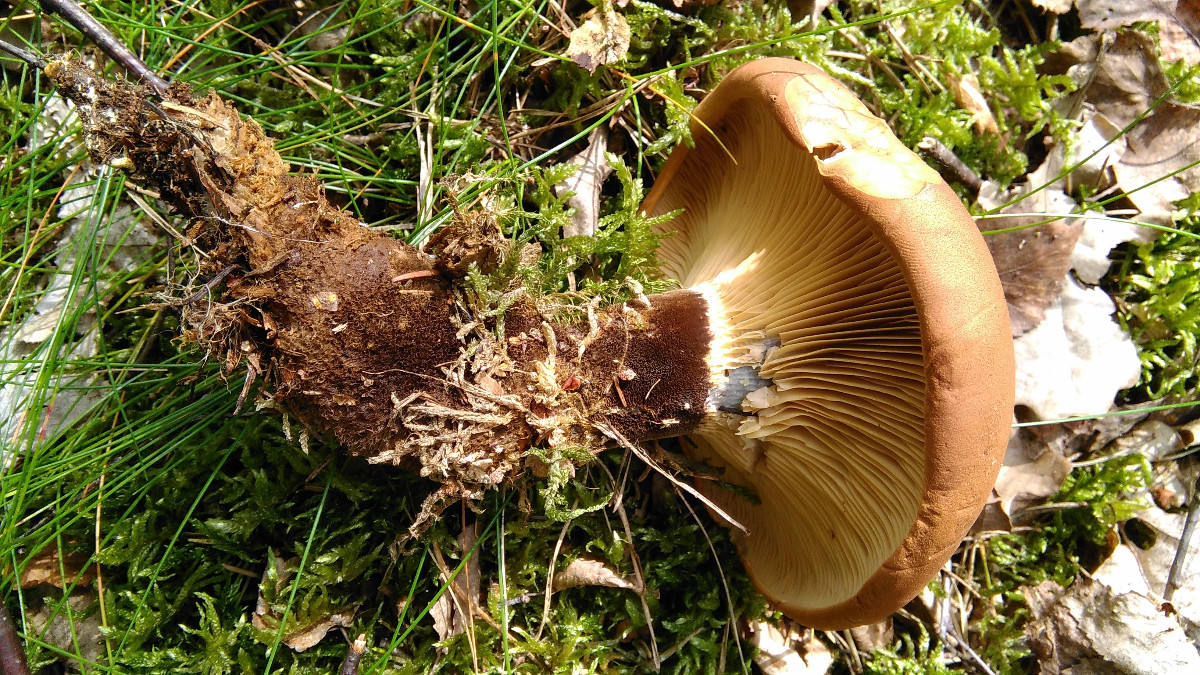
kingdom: Fungi
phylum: Basidiomycota
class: Agaricomycetes
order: Boletales
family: Tapinellaceae
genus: Tapinella
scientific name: Tapinella atrotomentosa
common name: sortfiltet viftesvamp
